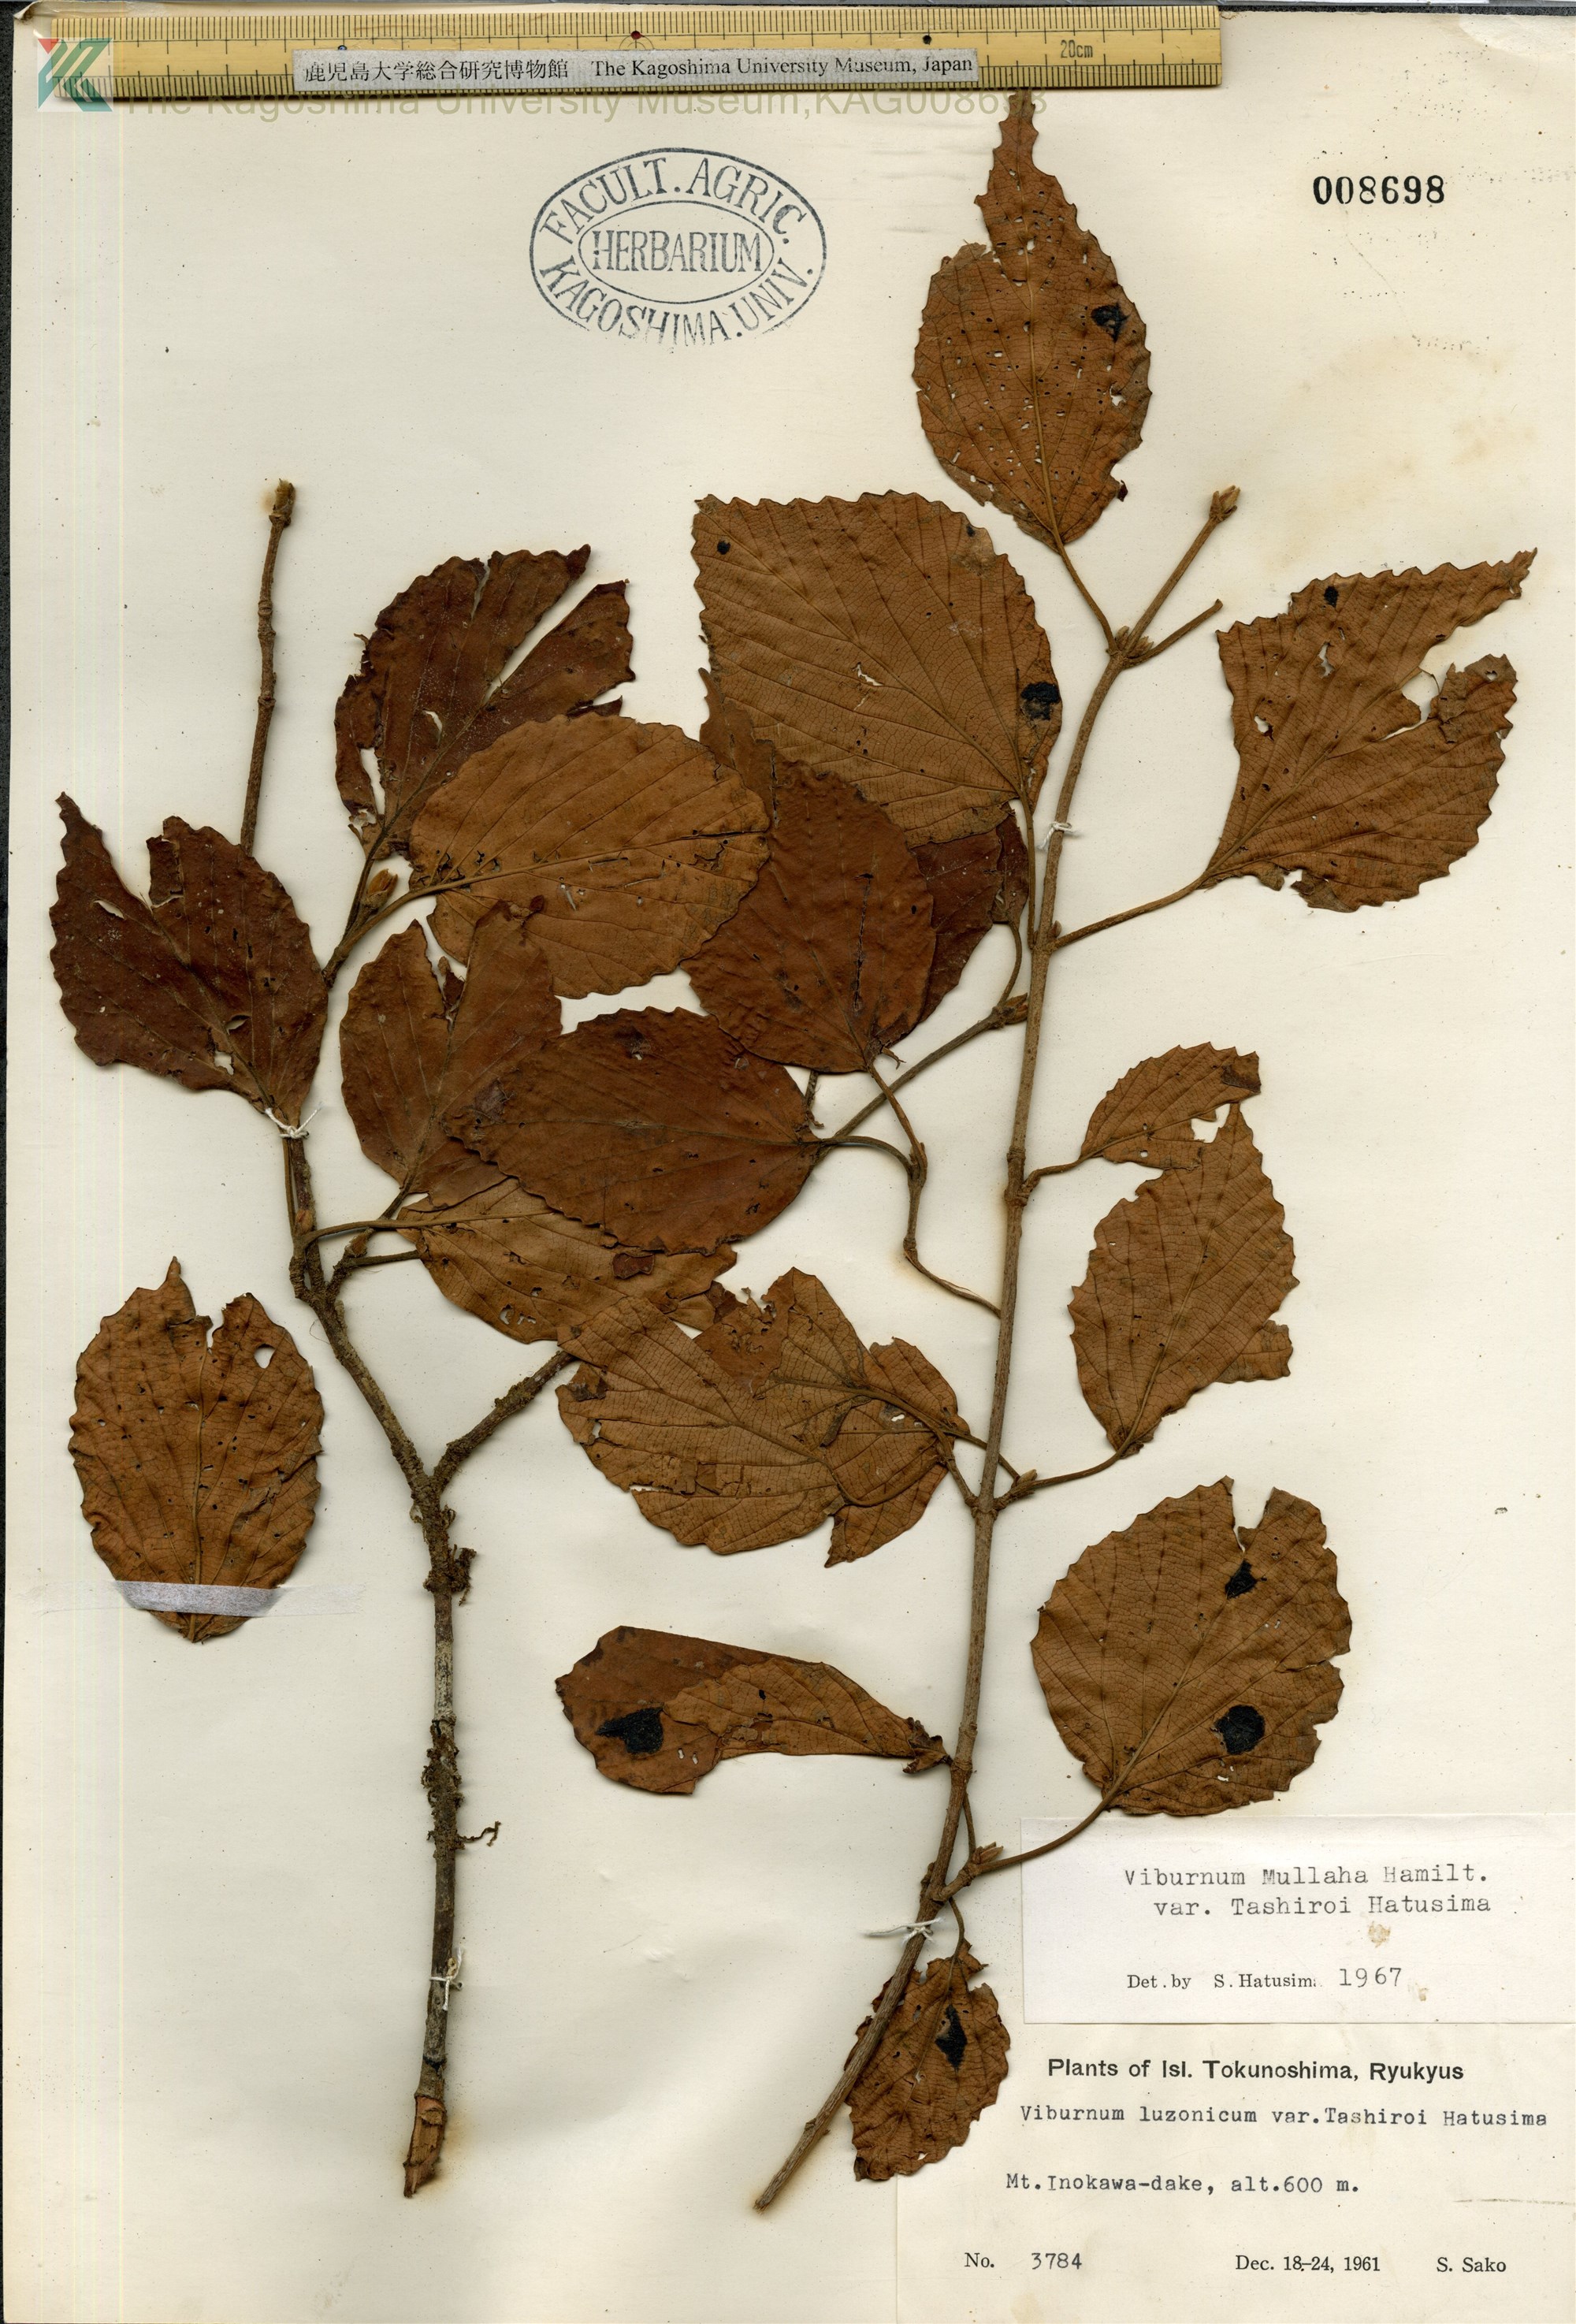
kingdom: Plantae
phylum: Tracheophyta
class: Magnoliopsida
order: Dipsacales
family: Viburnaceae
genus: Viburnum
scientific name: Viburnum luzonicum
